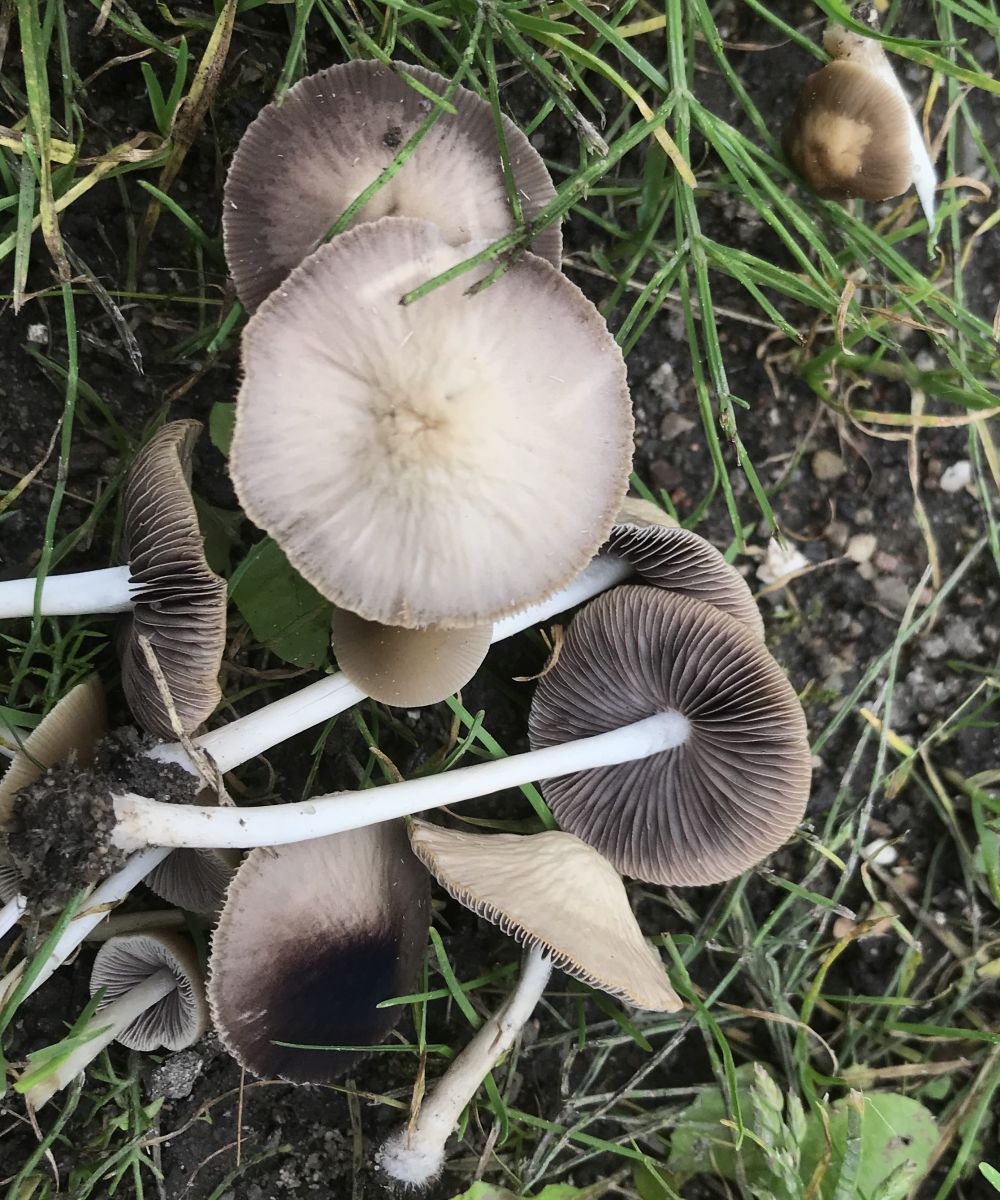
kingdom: Fungi
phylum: Basidiomycota
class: Agaricomycetes
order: Agaricales
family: Psathyrellaceae
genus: Candolleomyces
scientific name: Candolleomyces candolleanus
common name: Candolles mørkhat
